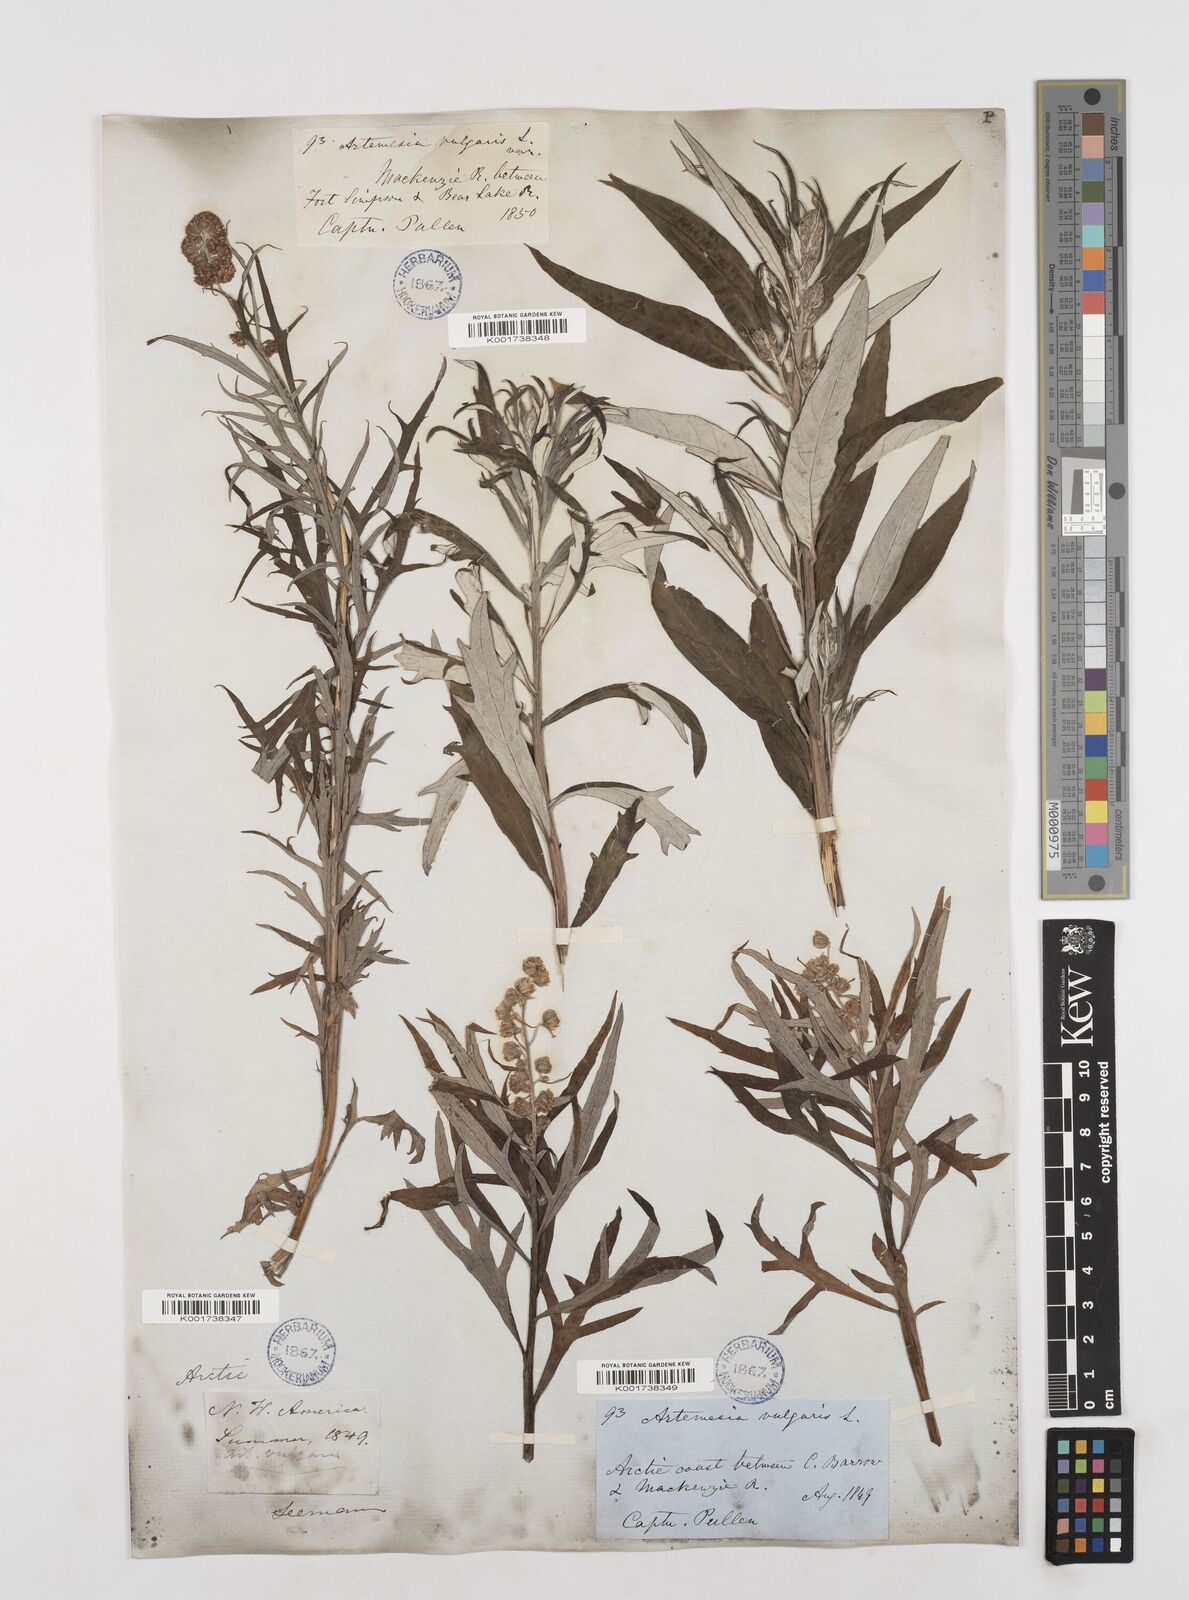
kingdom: Plantae
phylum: Tracheophyta
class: Magnoliopsida
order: Asterales
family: Asteraceae
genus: Artemisia
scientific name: Artemisia tilesii
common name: Aleutian mugwort
